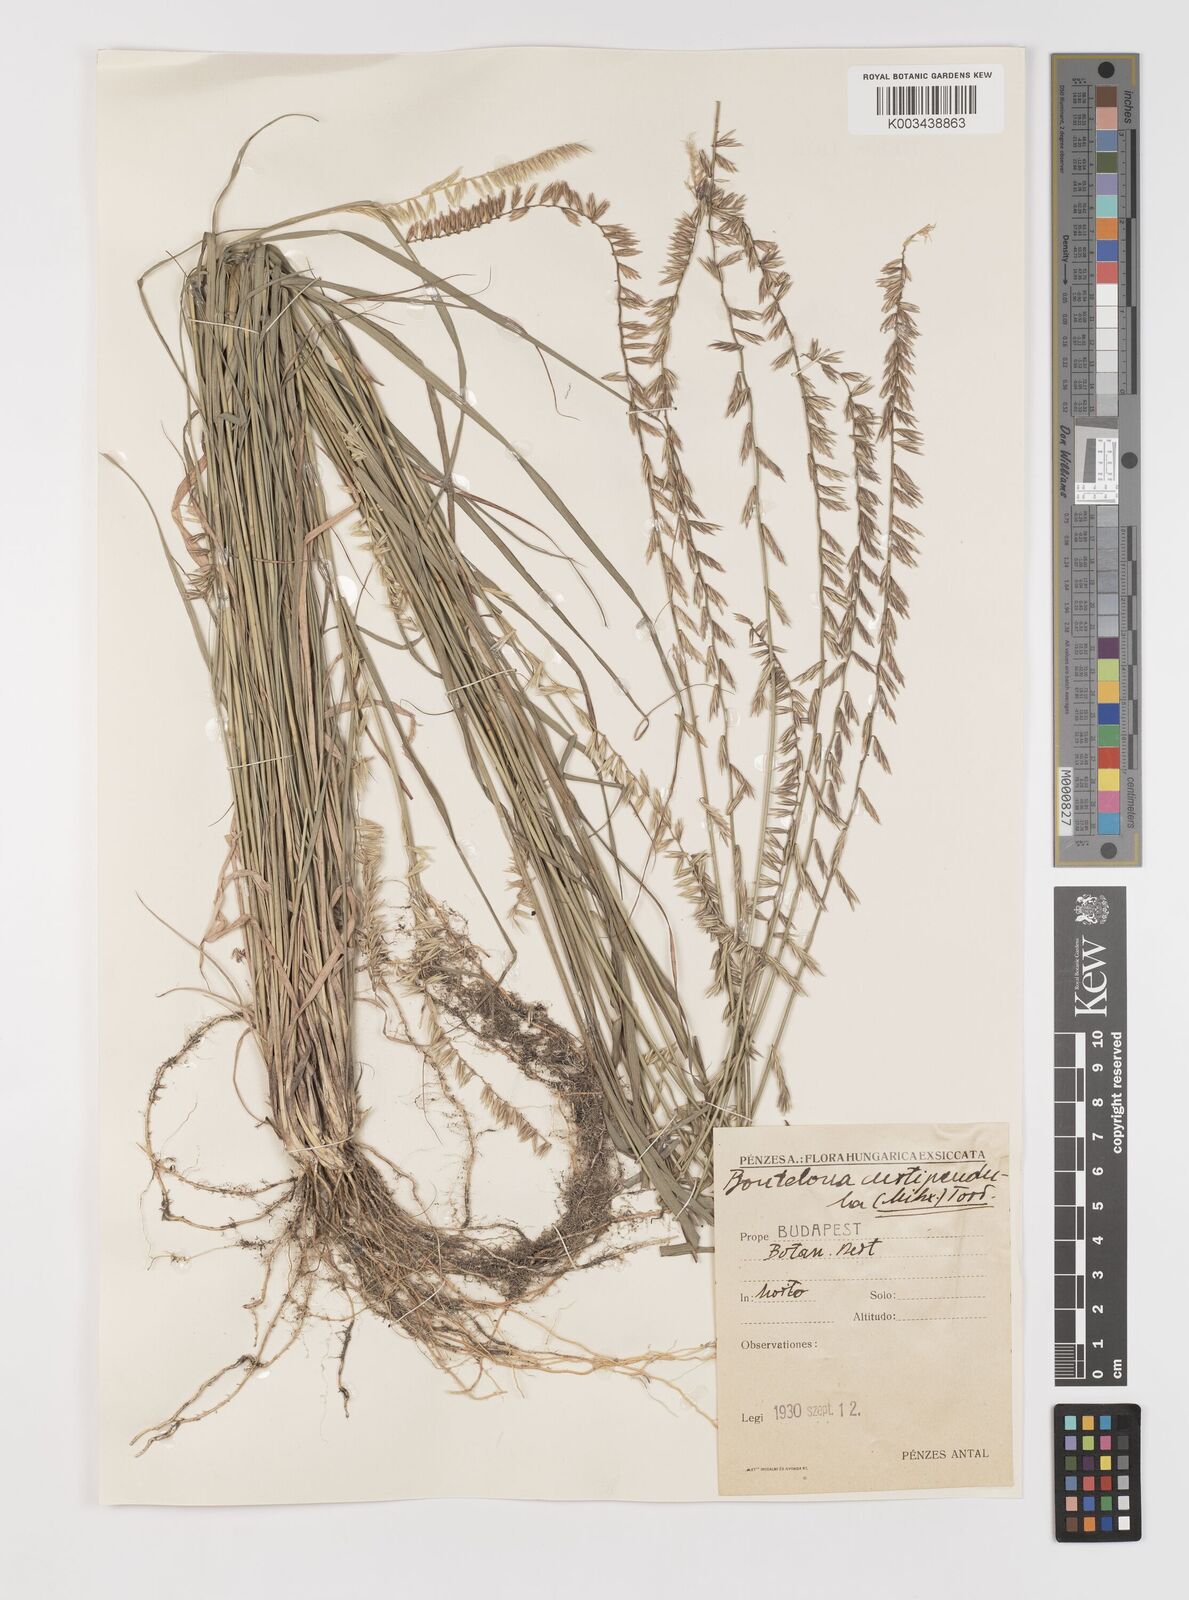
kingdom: Plantae
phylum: Tracheophyta
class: Liliopsida
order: Poales
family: Poaceae
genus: Bouteloua
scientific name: Bouteloua curtipendula
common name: Side-oats grama
